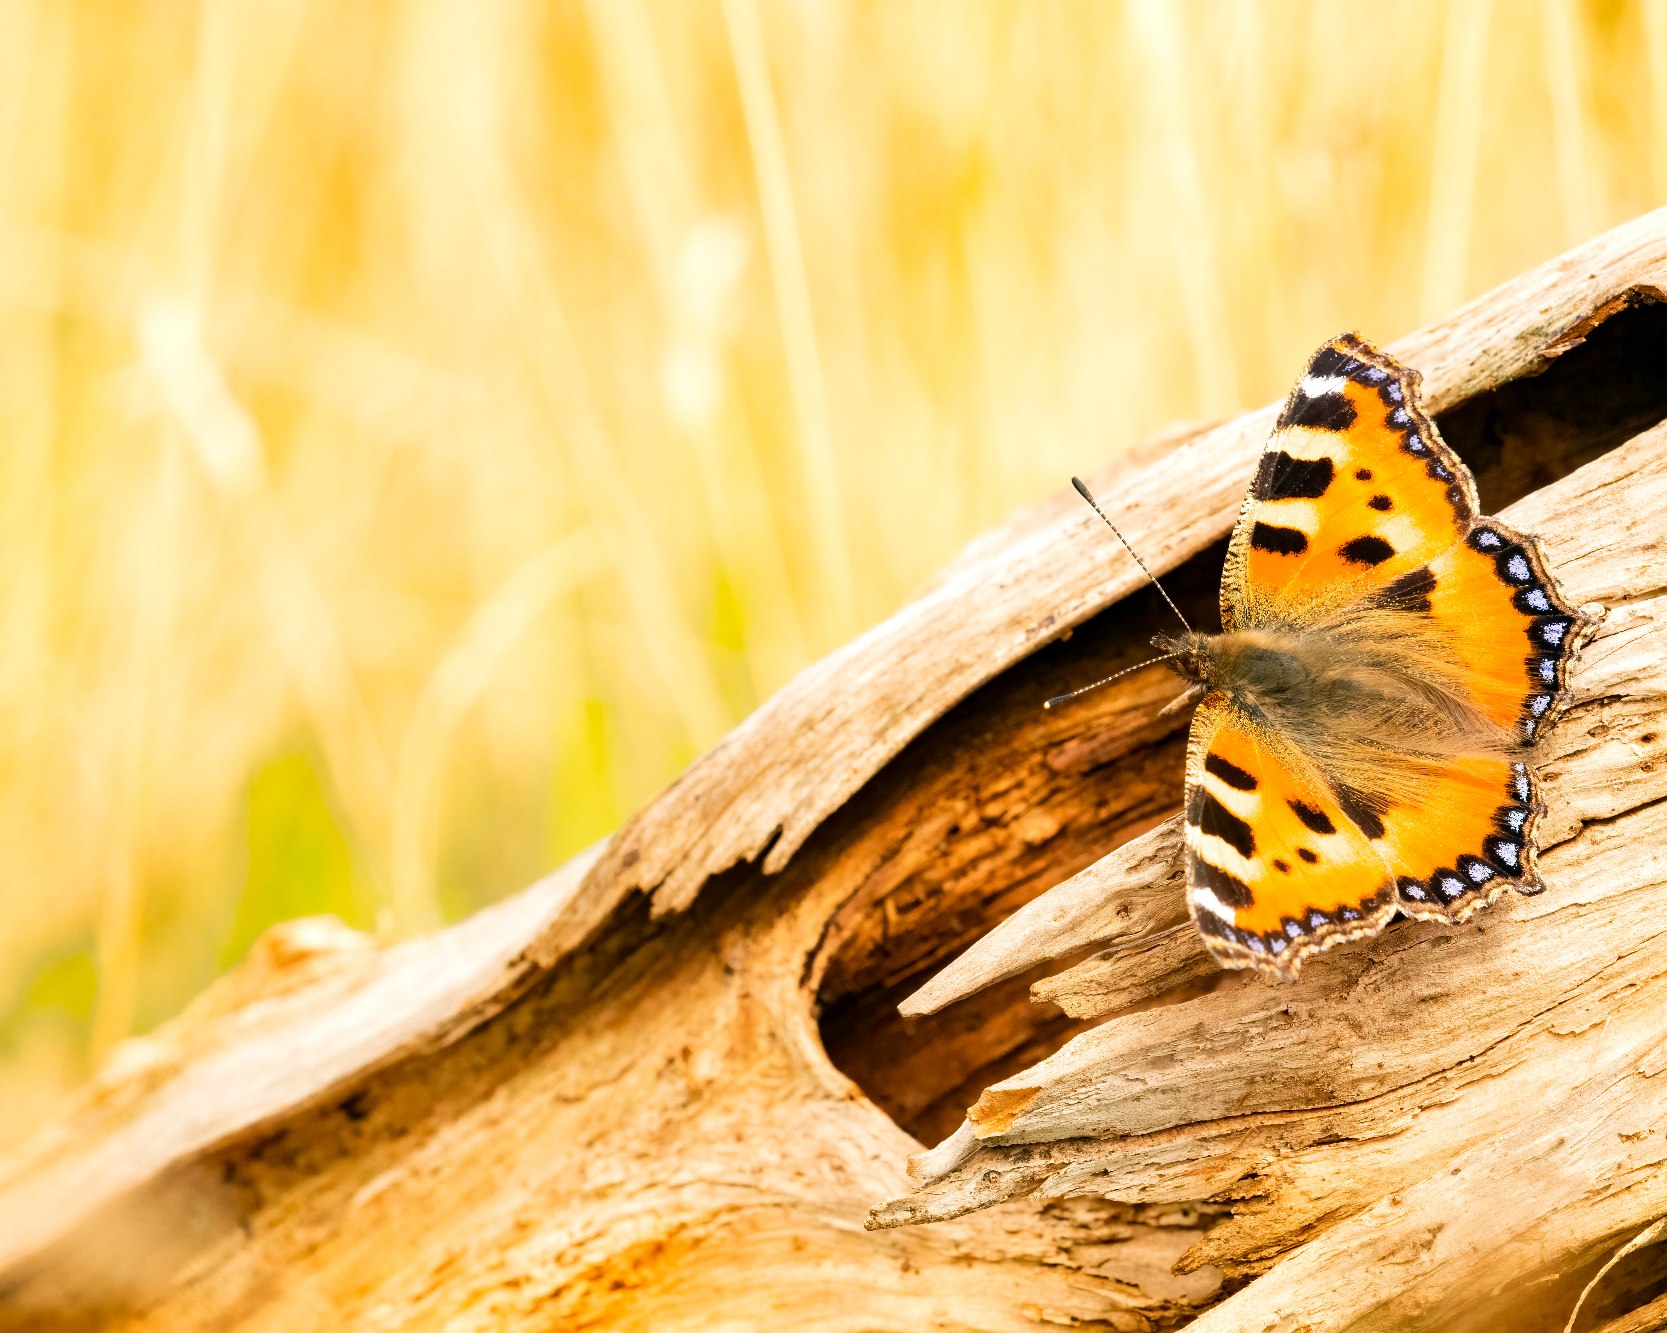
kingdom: Animalia
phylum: Arthropoda
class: Insecta
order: Lepidoptera
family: Nymphalidae
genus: Aglais
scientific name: Aglais urticae
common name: Nældens takvinge
